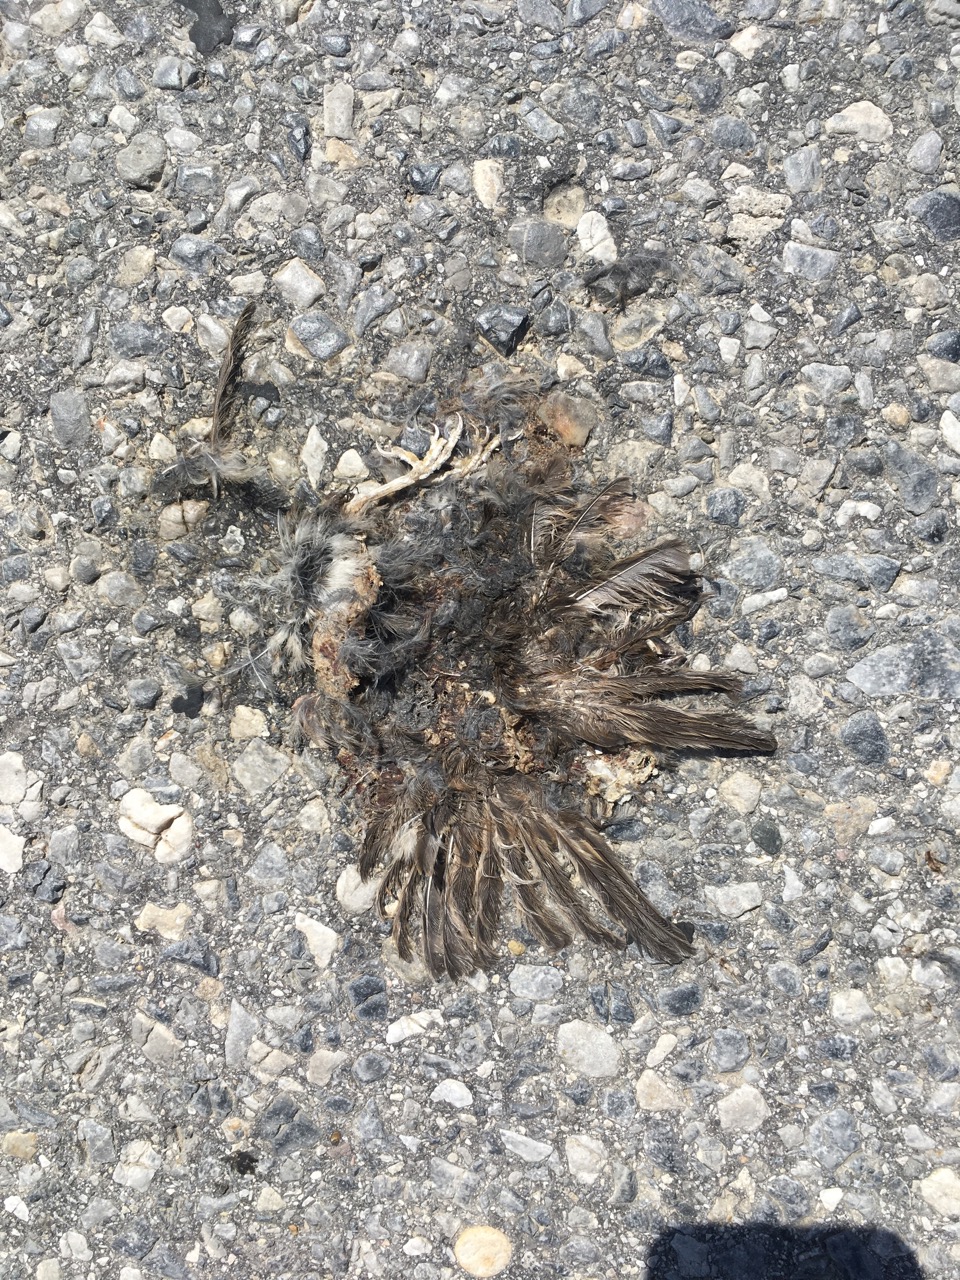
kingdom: Animalia
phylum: Chordata
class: Aves
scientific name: Aves
